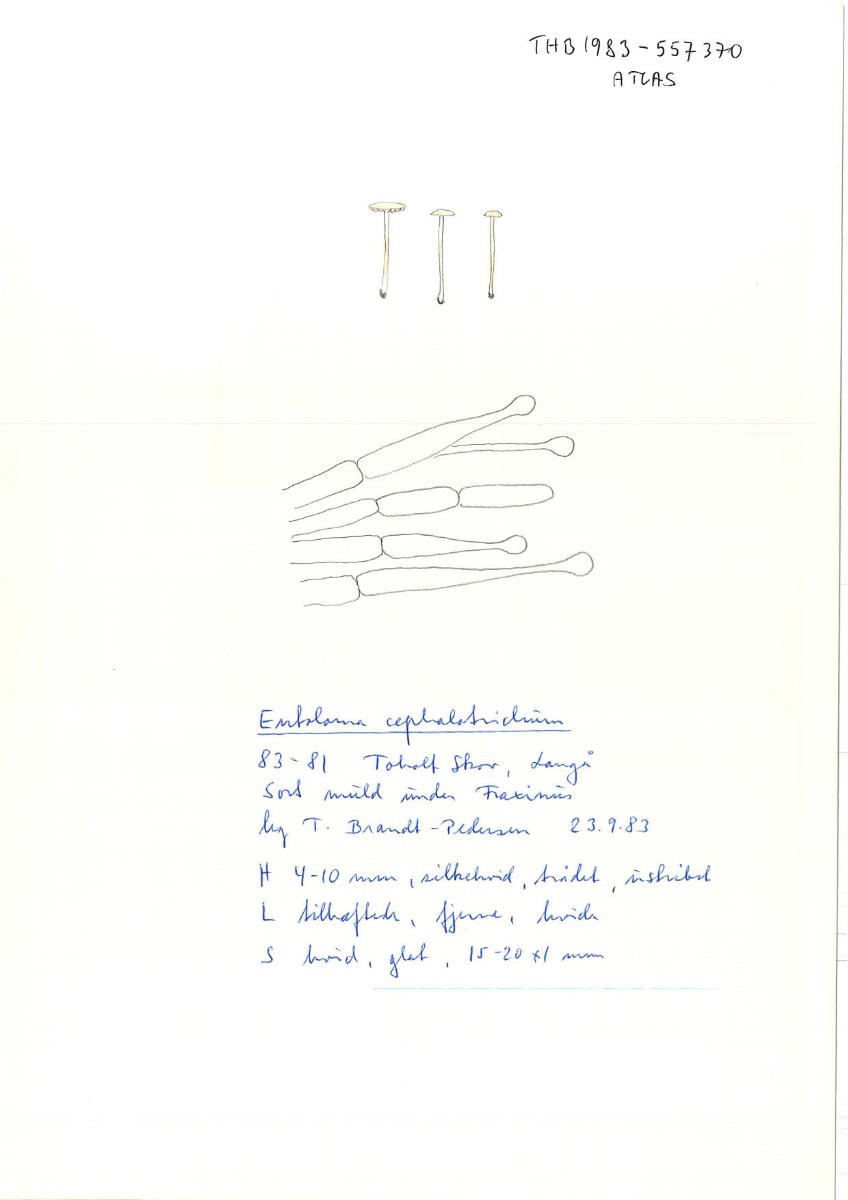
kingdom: Fungi
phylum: Basidiomycota
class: Agaricomycetes
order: Agaricales
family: Entolomataceae
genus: Entoloma
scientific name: Entoloma cephalotrichum
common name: hvidhåret rødblad
